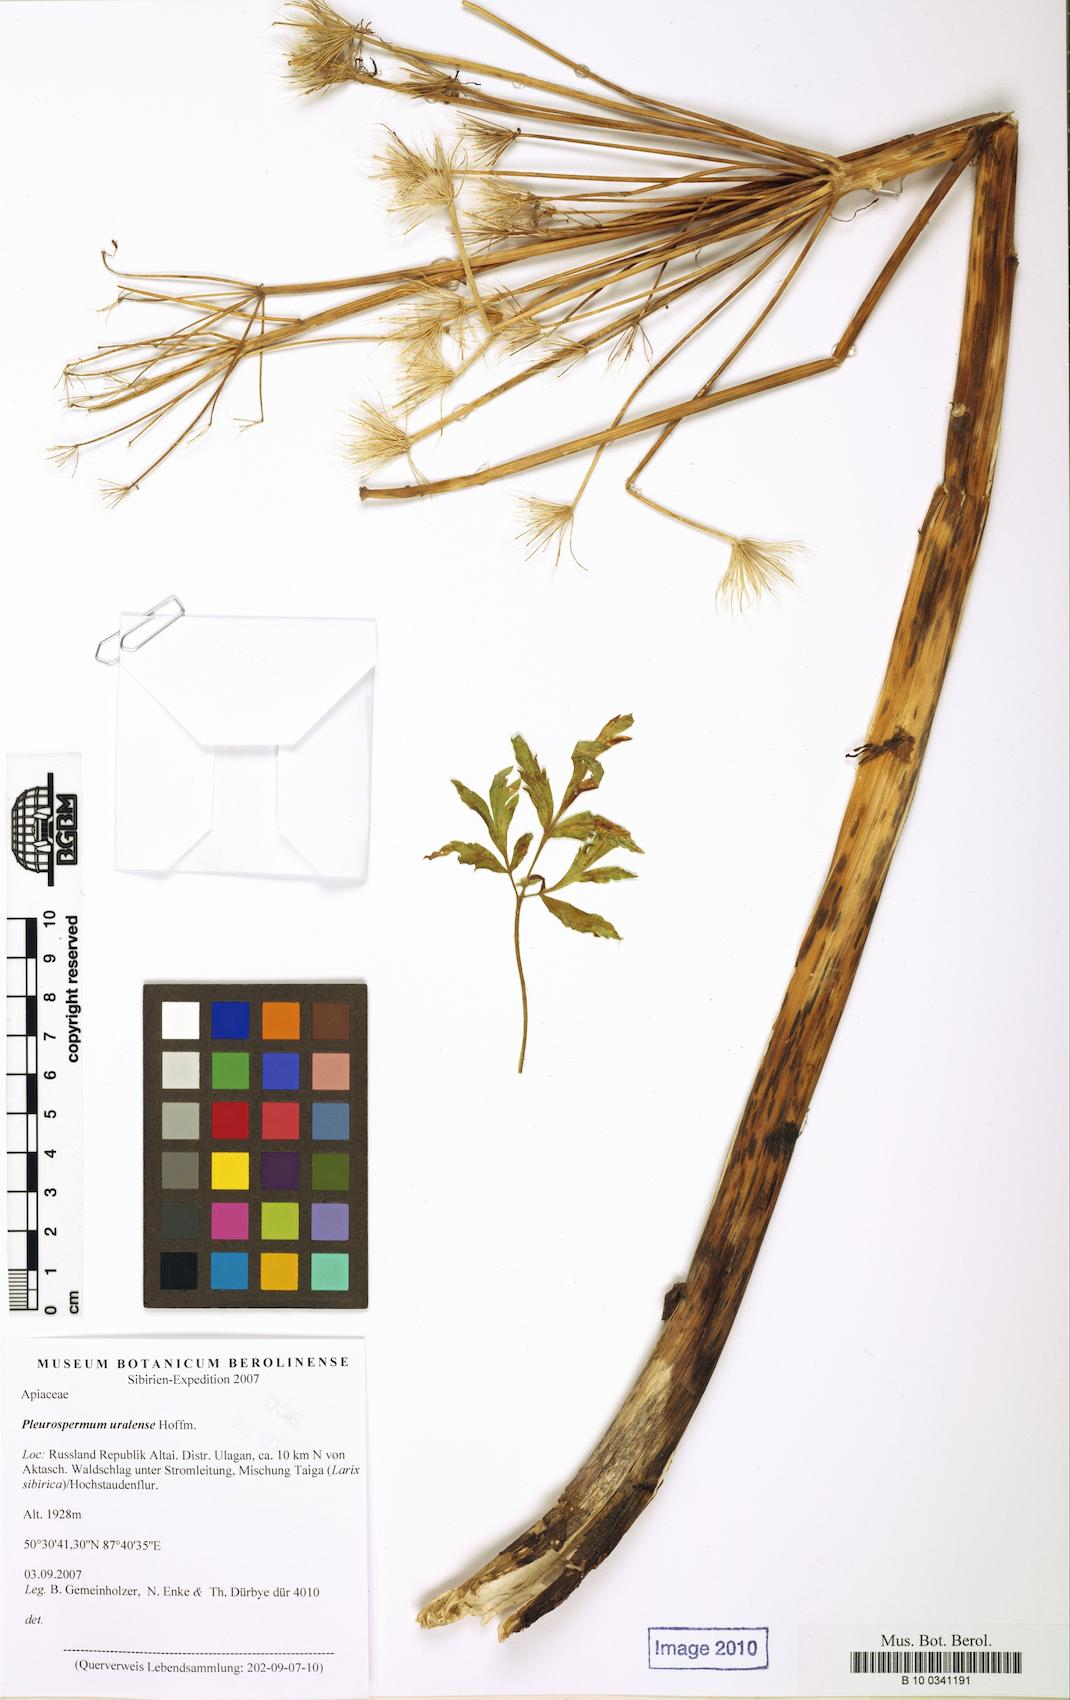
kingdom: Plantae
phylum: Tracheophyta
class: Magnoliopsida
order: Apiales
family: Apiaceae
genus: Pleurospermum
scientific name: Pleurospermum uralense
